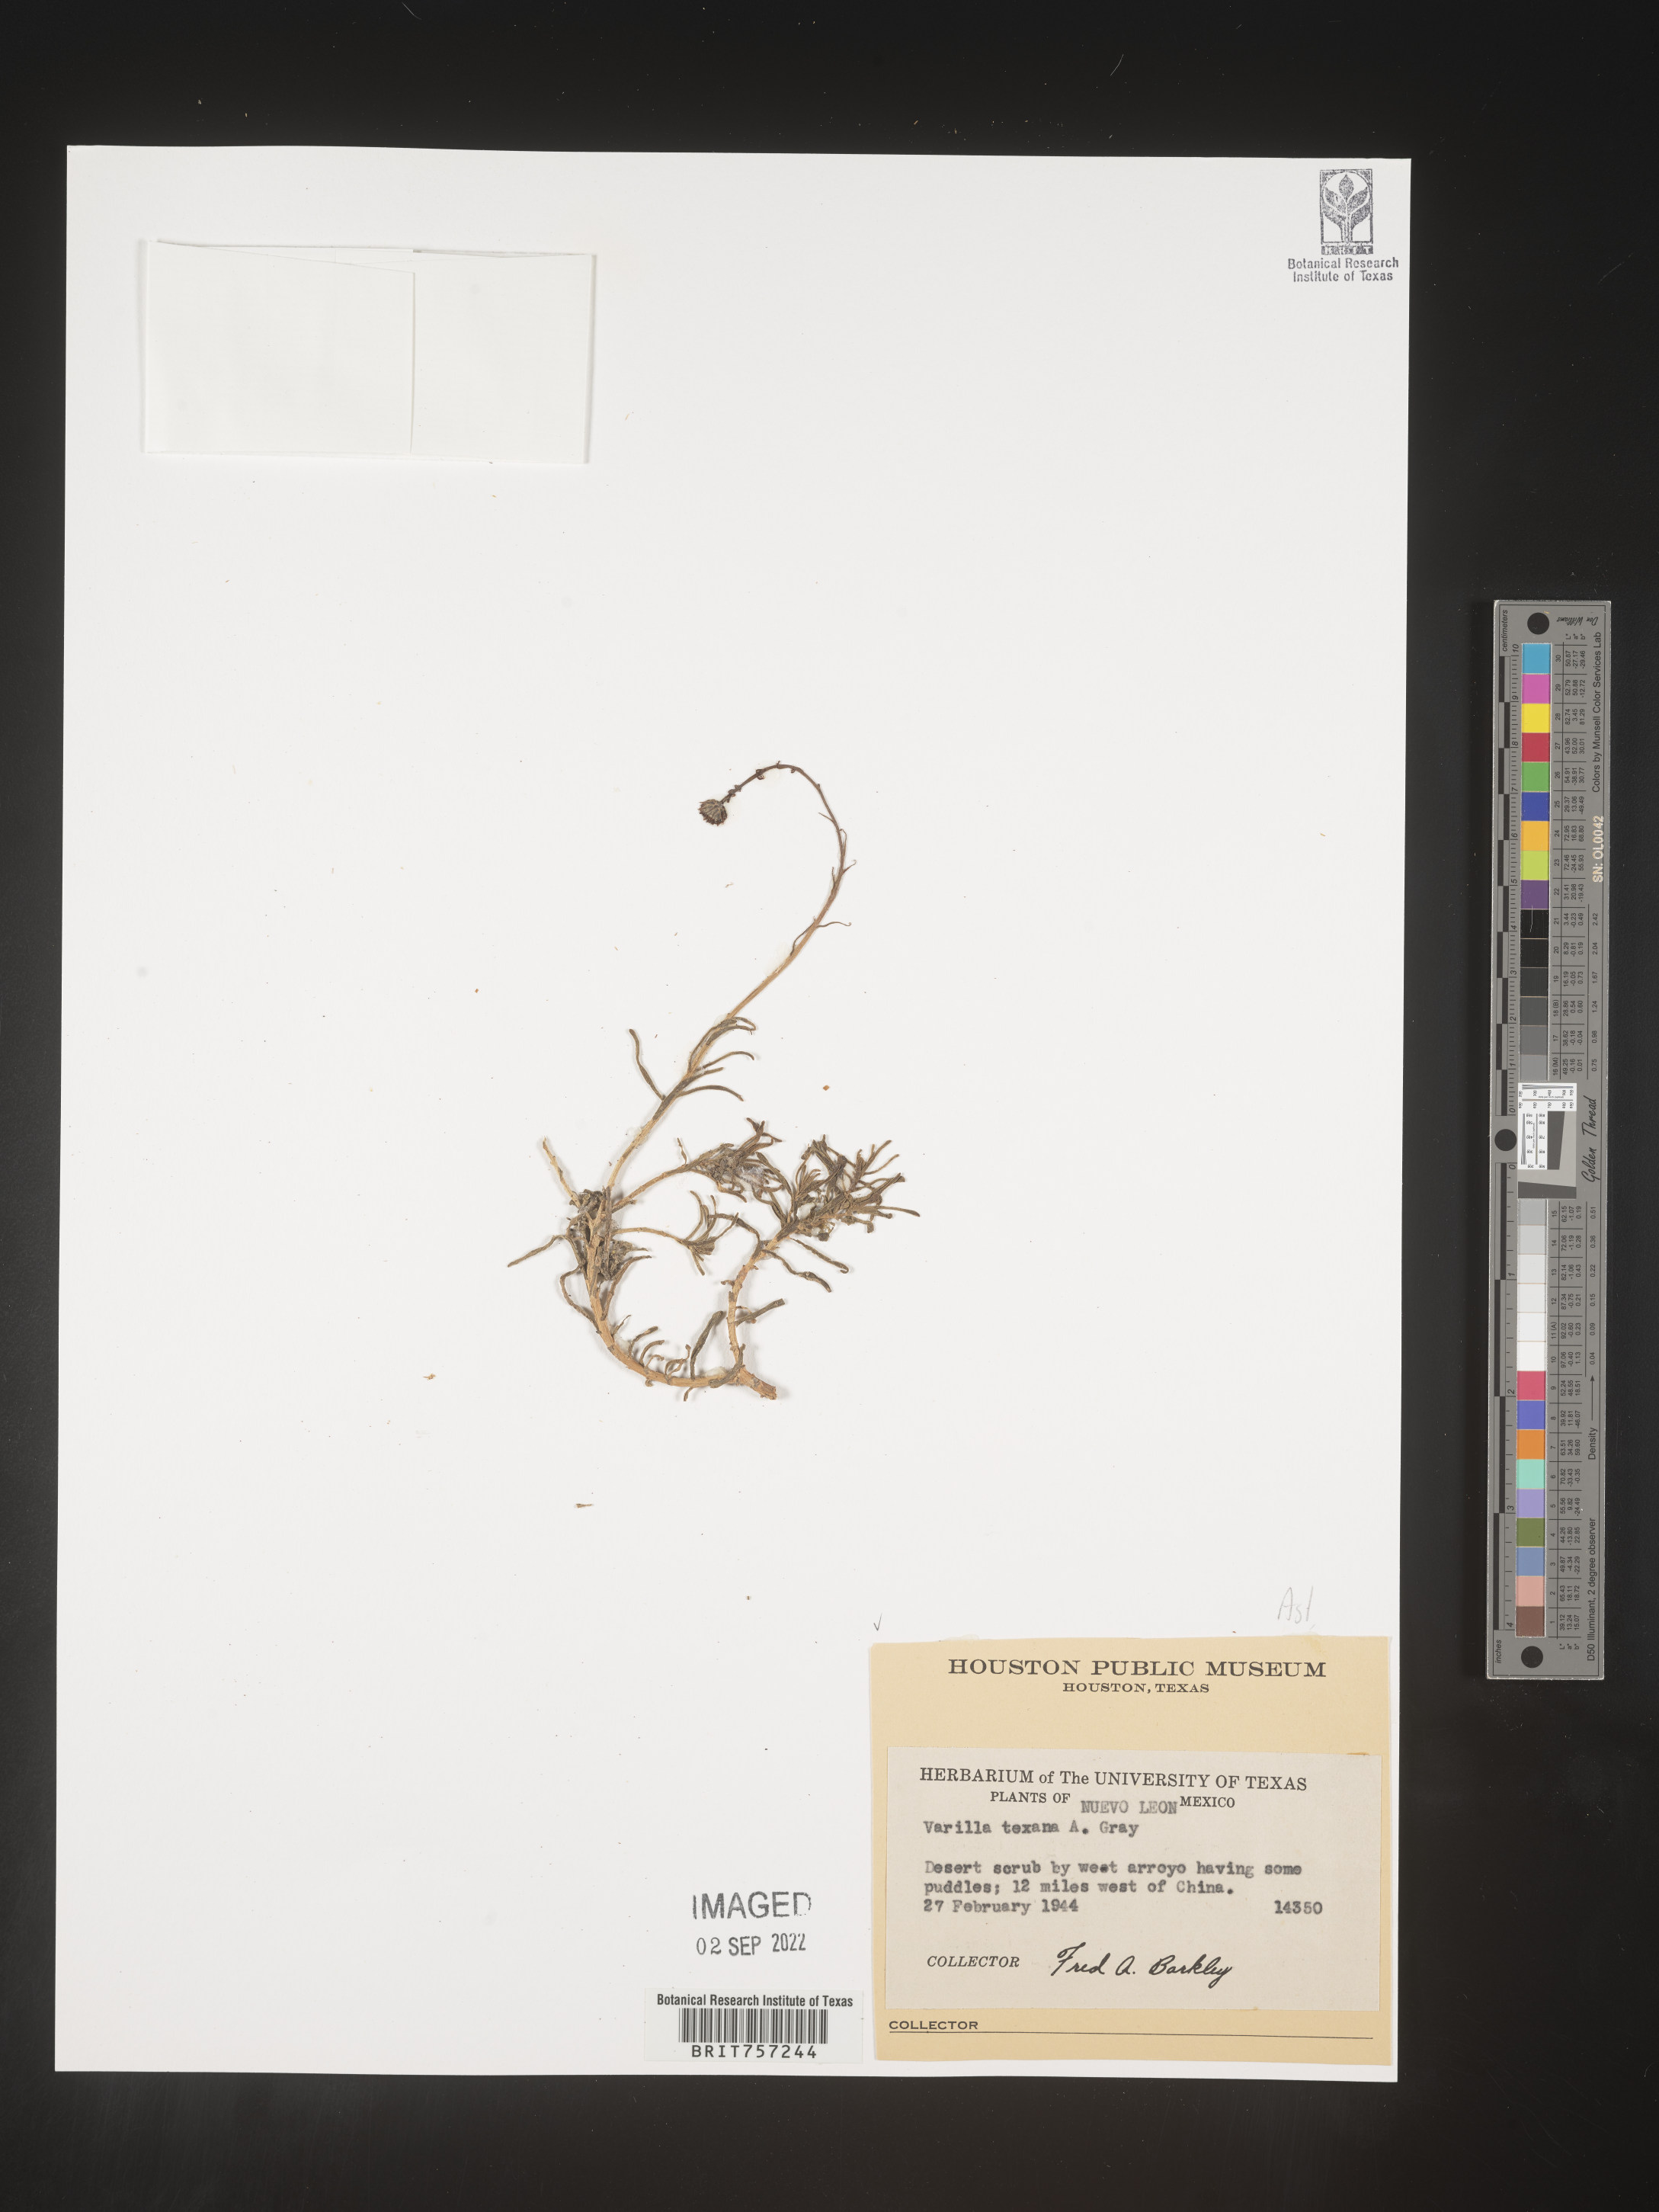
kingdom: Plantae
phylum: Tracheophyta
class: Magnoliopsida
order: Asterales
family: Asteraceae
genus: Varilla
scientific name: Varilla
